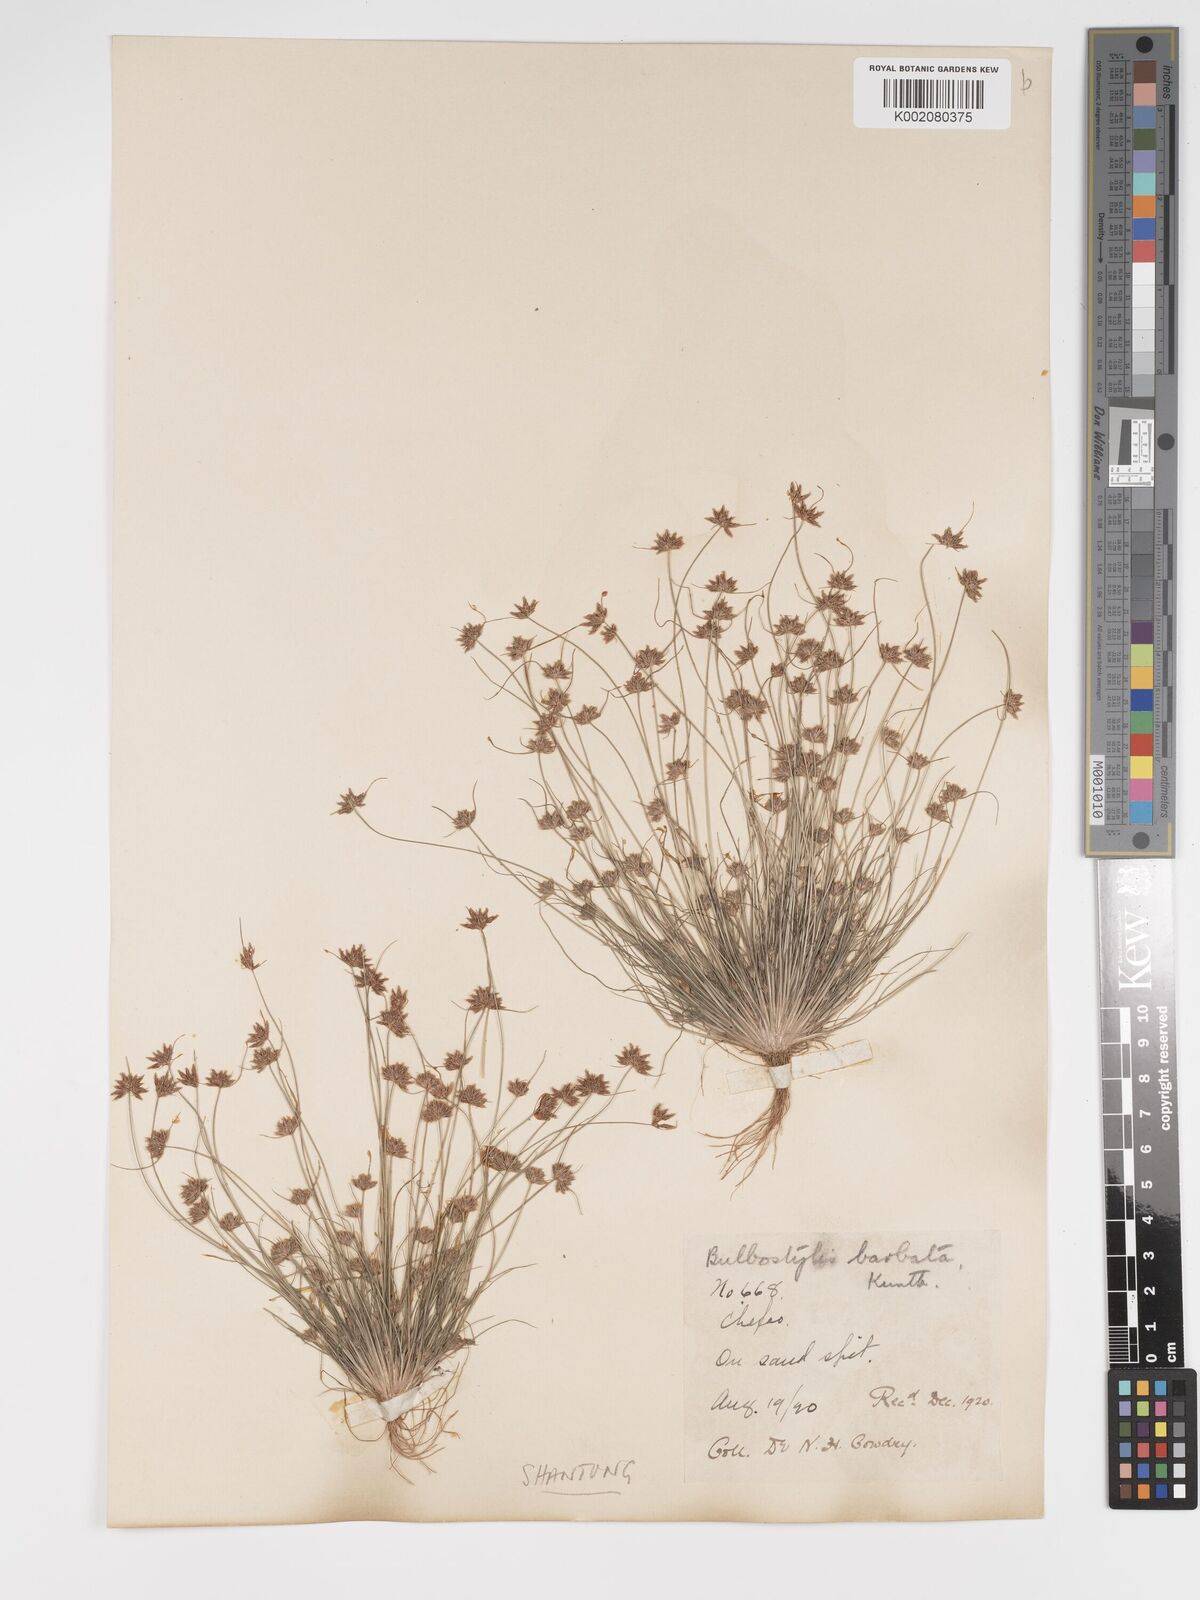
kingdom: Plantae
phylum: Tracheophyta
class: Liliopsida
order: Poales
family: Cyperaceae
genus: Bulbostylis
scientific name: Bulbostylis barbata
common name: Watergrass
